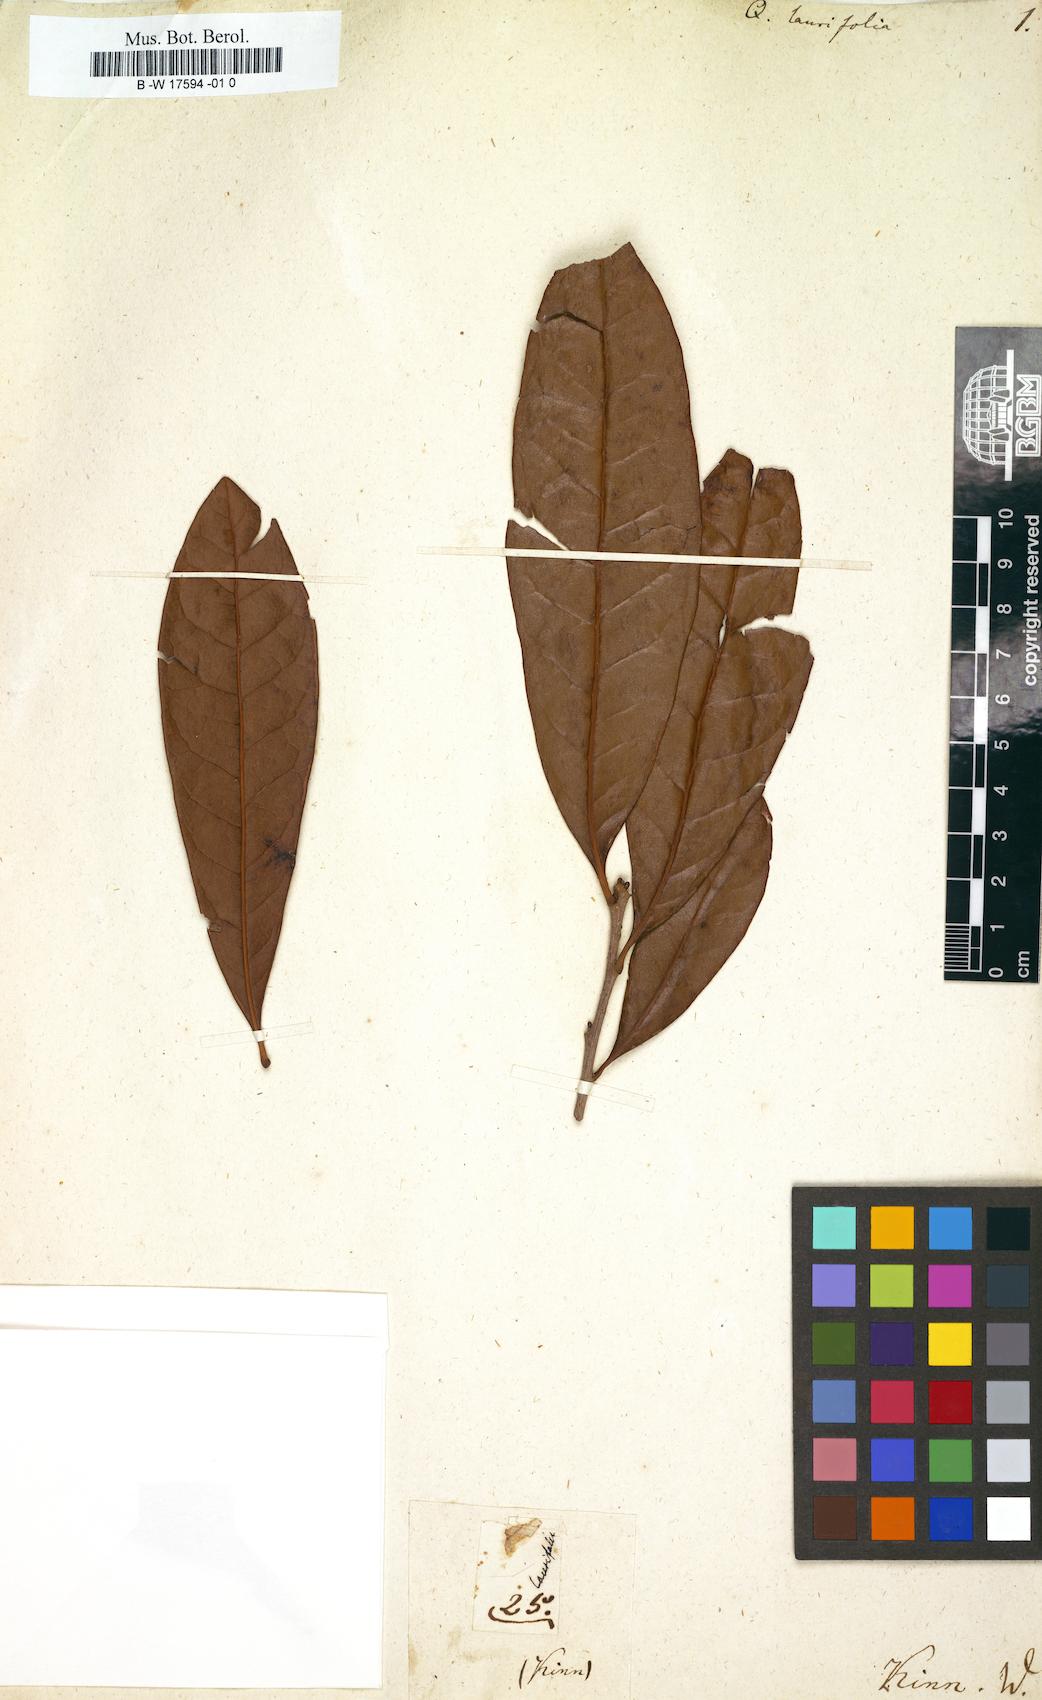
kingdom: Plantae
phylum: Tracheophyta
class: Magnoliopsida
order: Fagales
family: Fagaceae
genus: Quercus
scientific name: Quercus laurifolia
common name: Swamp laurel oak
